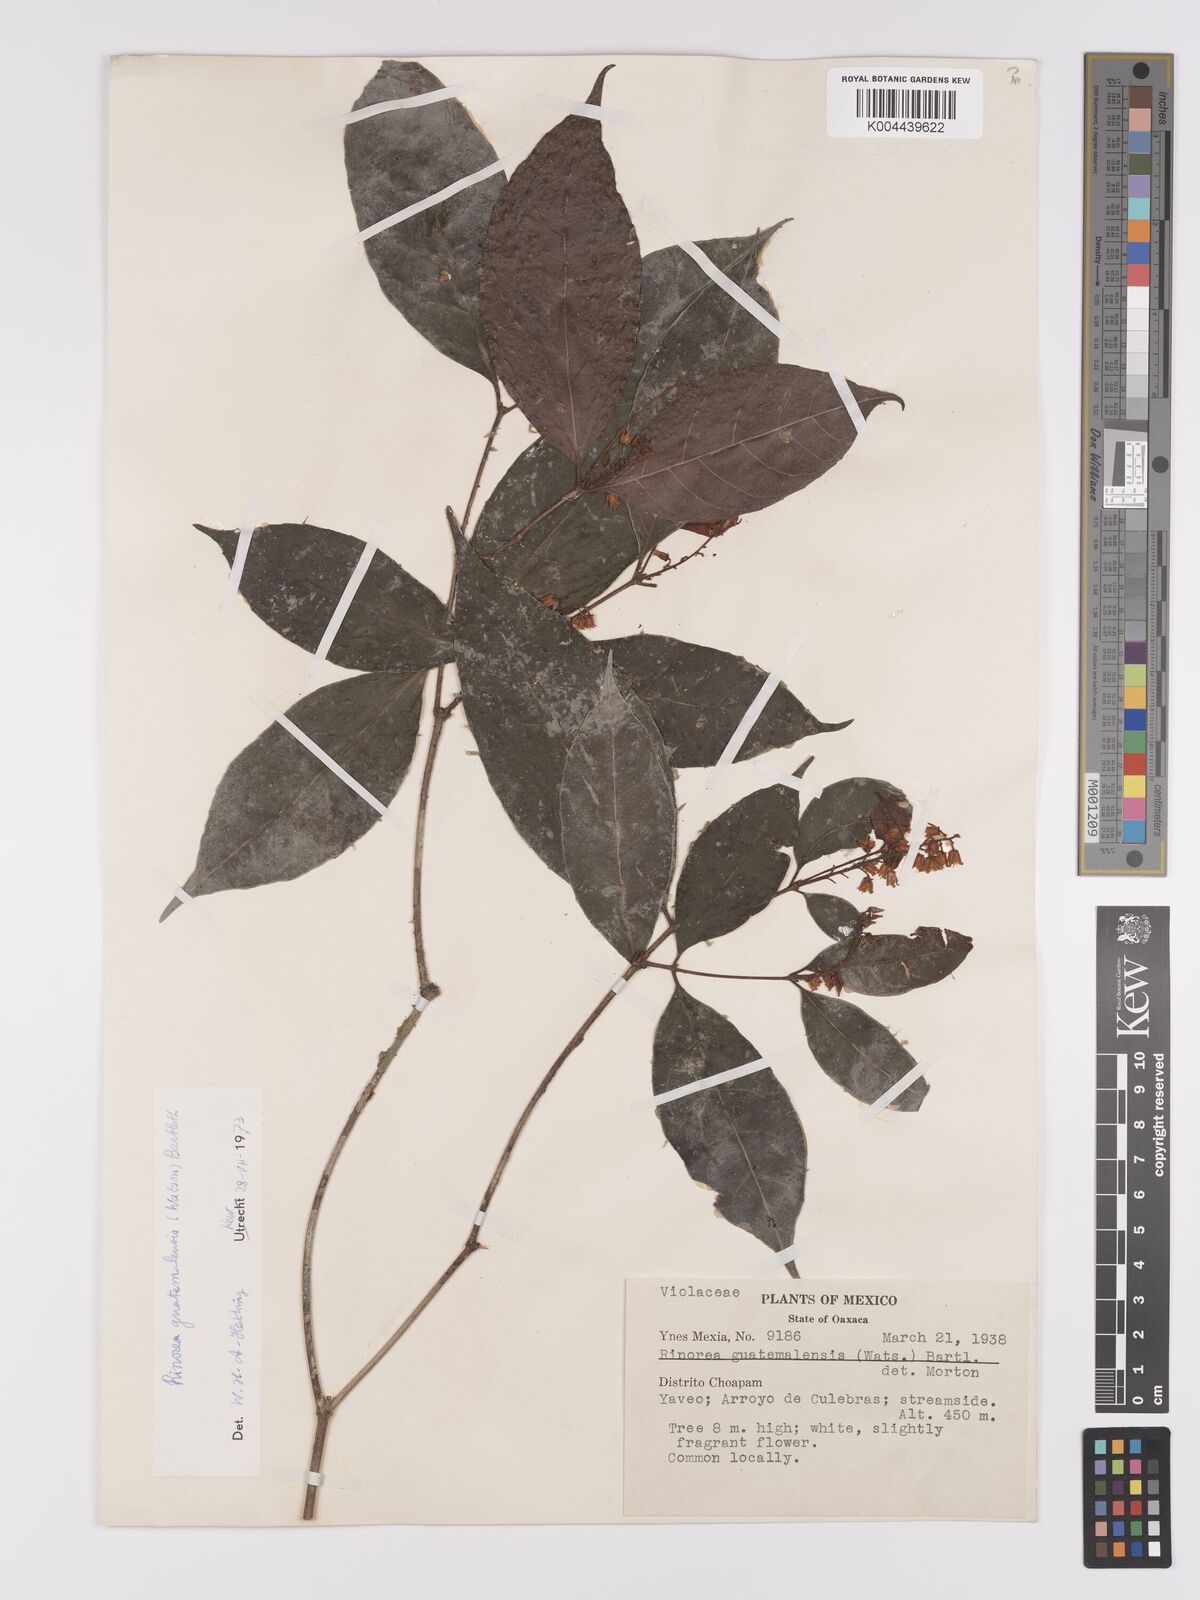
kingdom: Plantae
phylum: Tracheophyta
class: Magnoliopsida
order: Malpighiales
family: Violaceae
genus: Rinorea
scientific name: Rinorea guatemalensis
